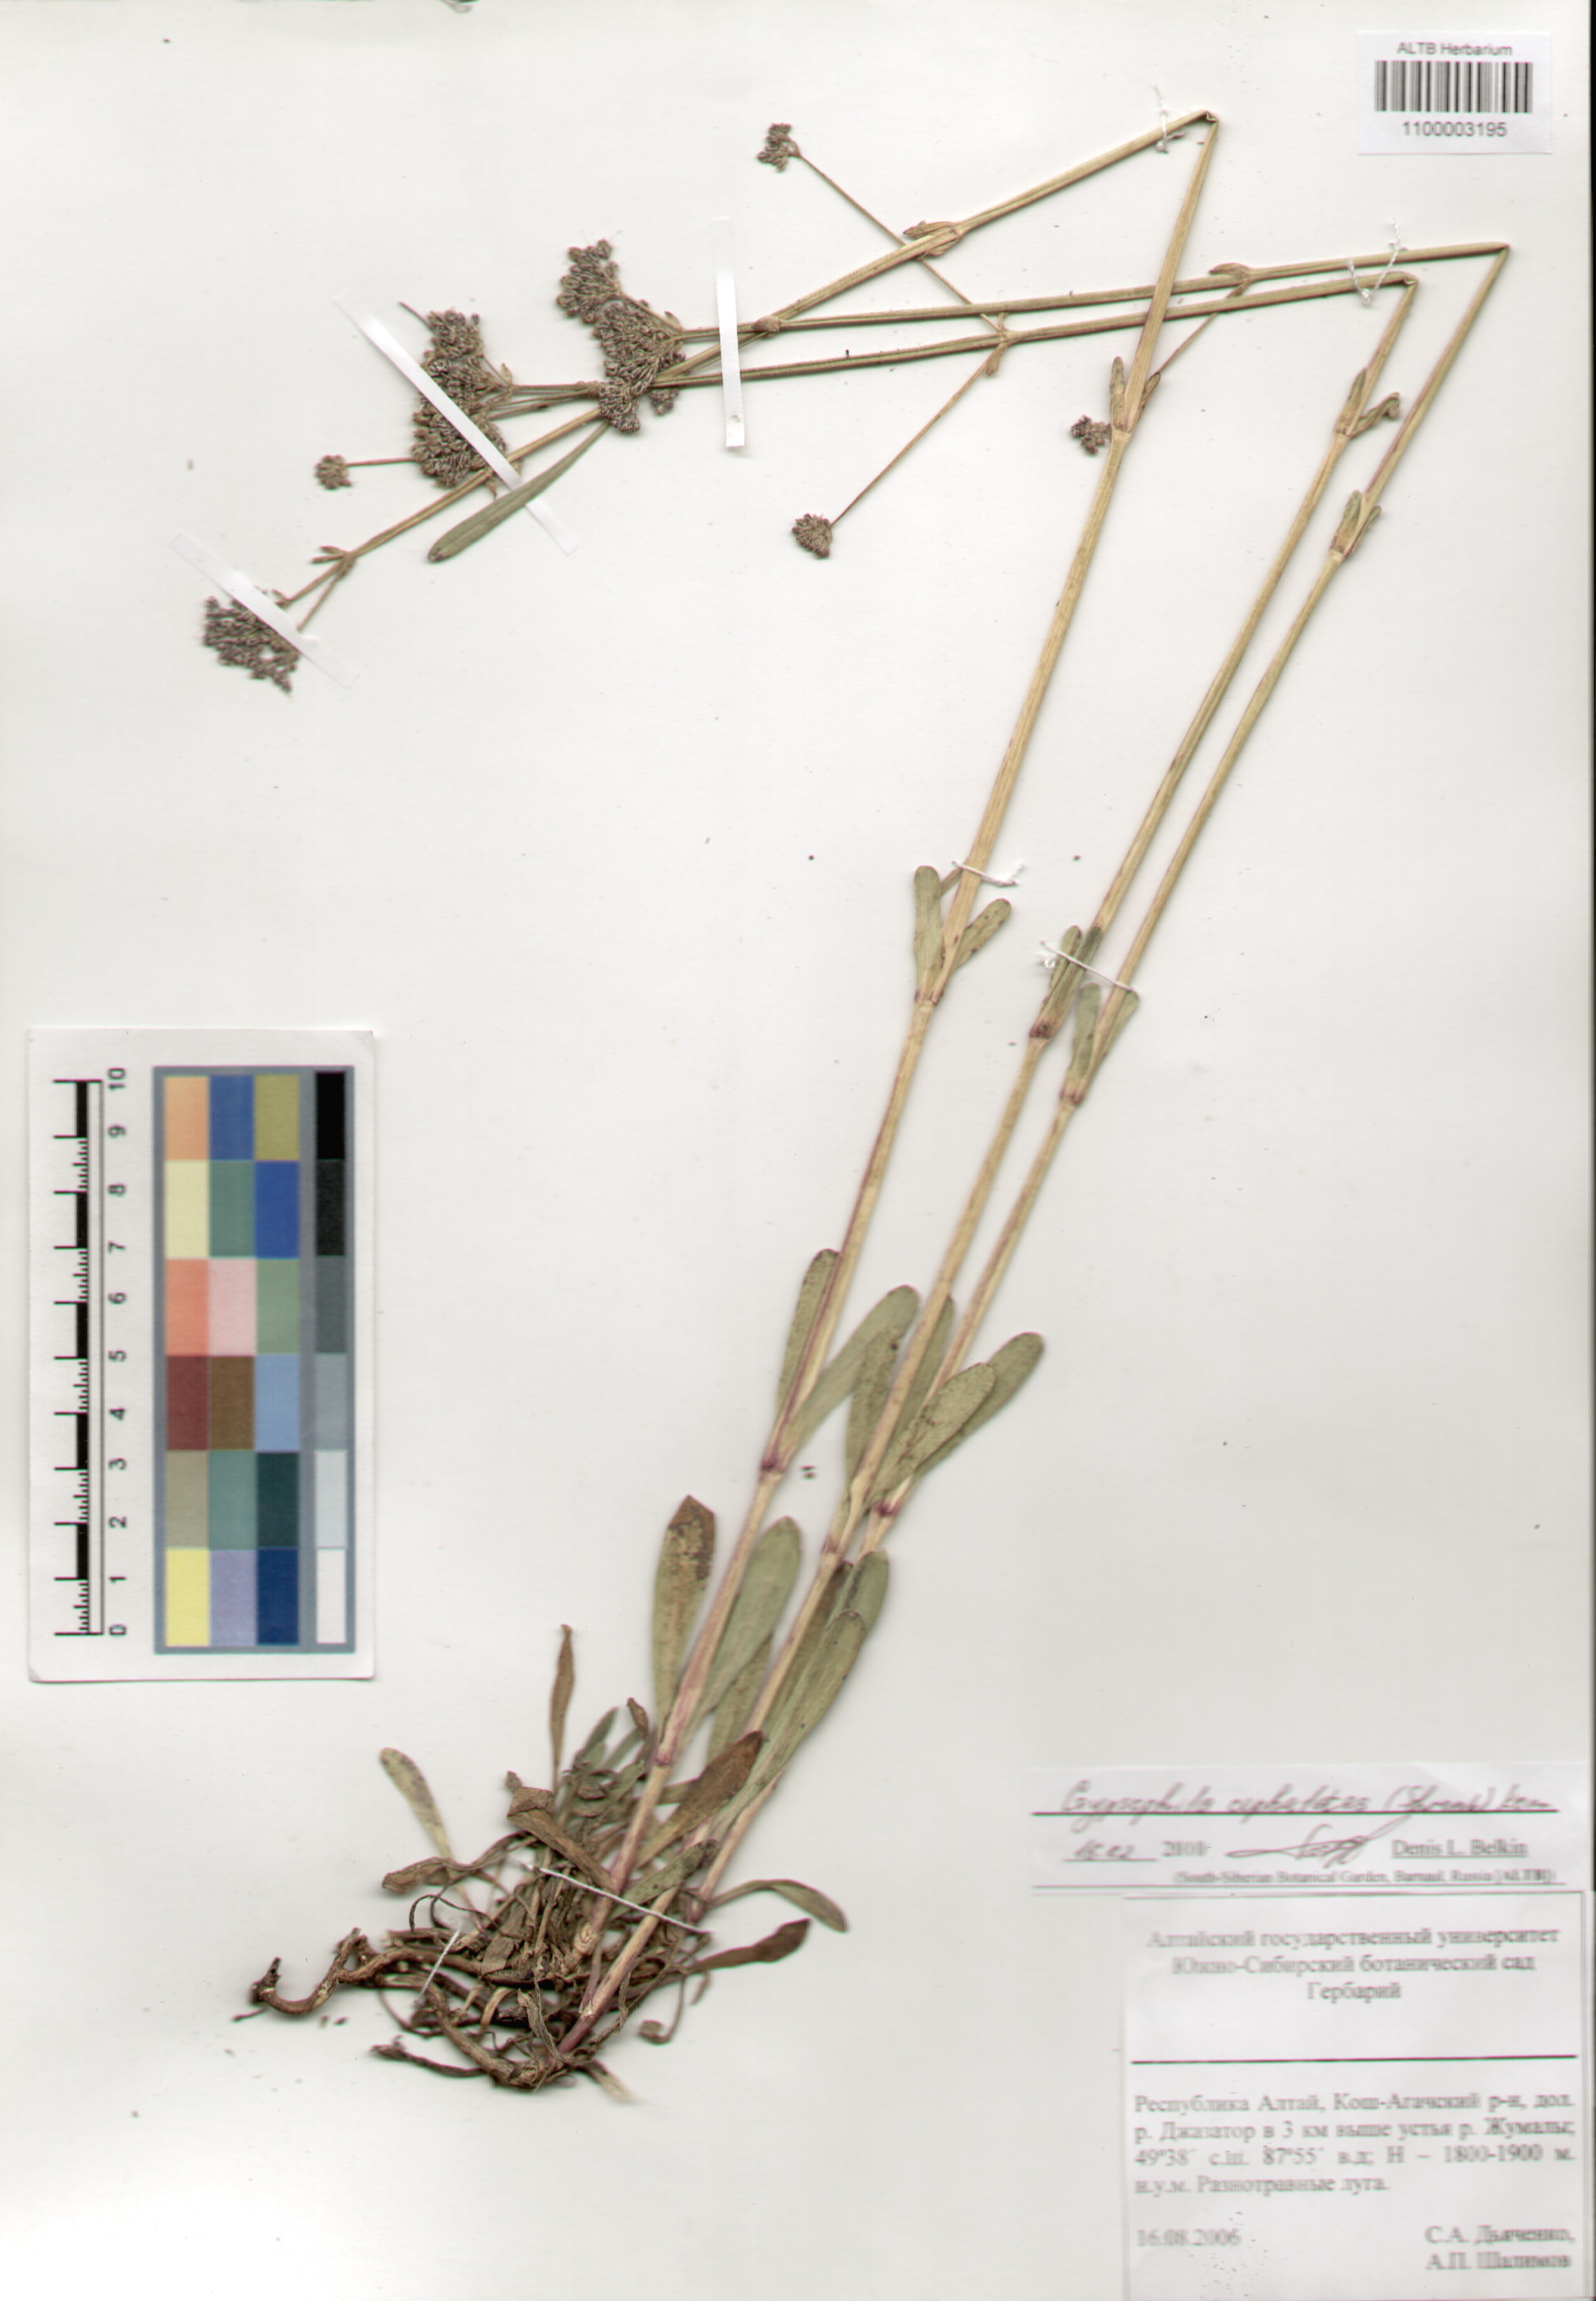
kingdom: Plantae
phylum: Tracheophyta
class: Magnoliopsida
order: Caryophyllales
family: Caryophyllaceae
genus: Gypsophila
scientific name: Gypsophila cephalotes
